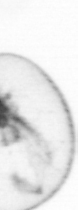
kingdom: Chromista
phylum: Myzozoa
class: Dinophyceae
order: Noctilucales
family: Noctilucaceae
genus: Noctiluca
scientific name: Noctiluca scintillans
